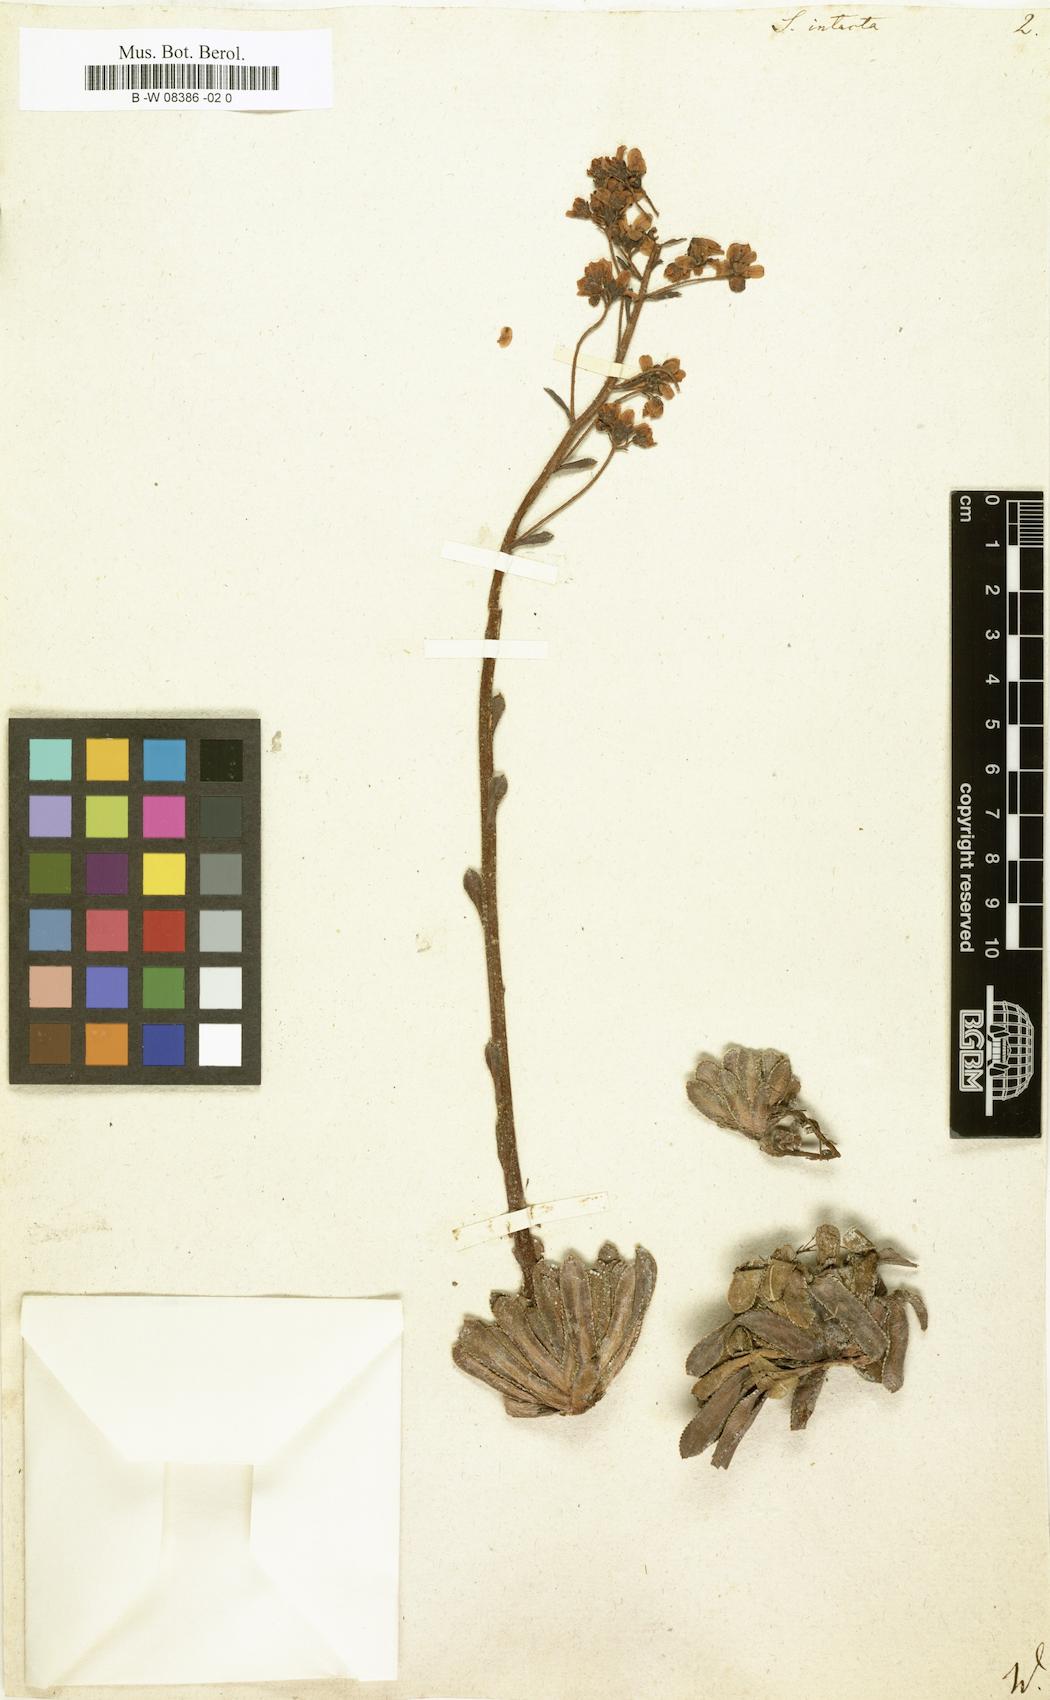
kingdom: Plantae
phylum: Tracheophyta
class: Magnoliopsida
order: Saxifragales
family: Saxifragaceae
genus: Saxifraga
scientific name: Saxifraga paniculata
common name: Livelong saxifrage
